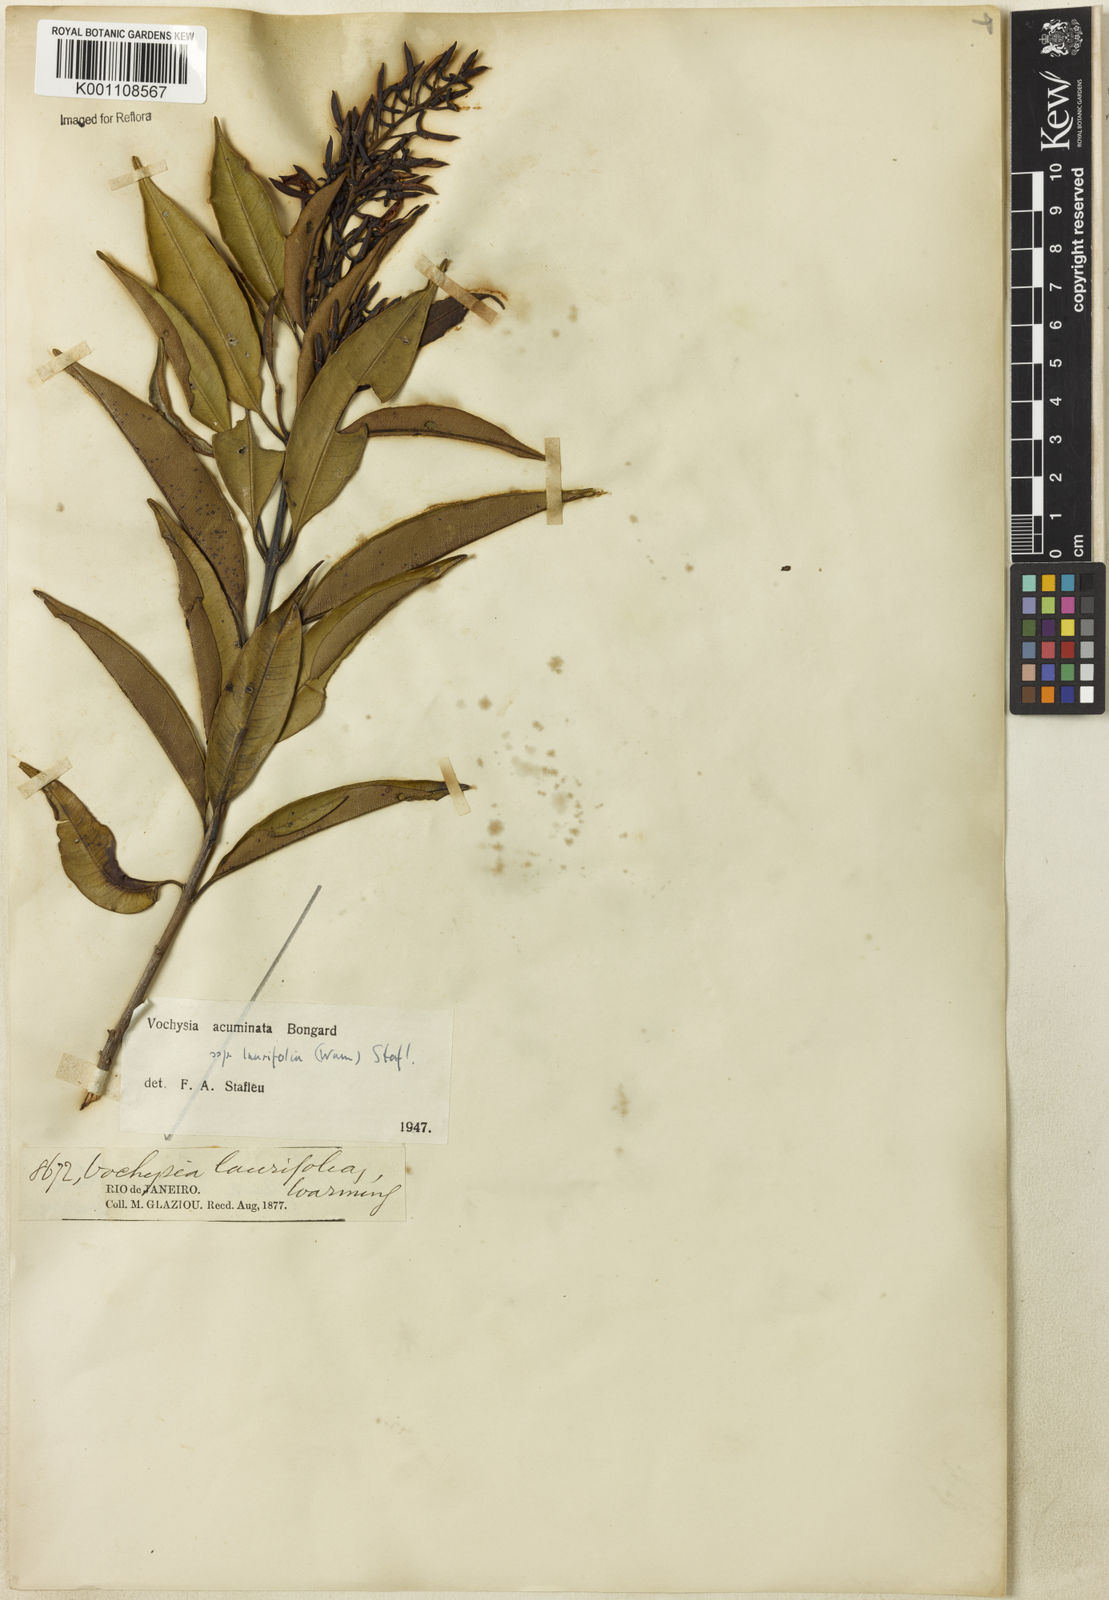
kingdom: Plantae
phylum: Tracheophyta
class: Magnoliopsida
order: Myrtales
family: Vochysiaceae
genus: Vochysia
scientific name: Vochysia laurifolia
